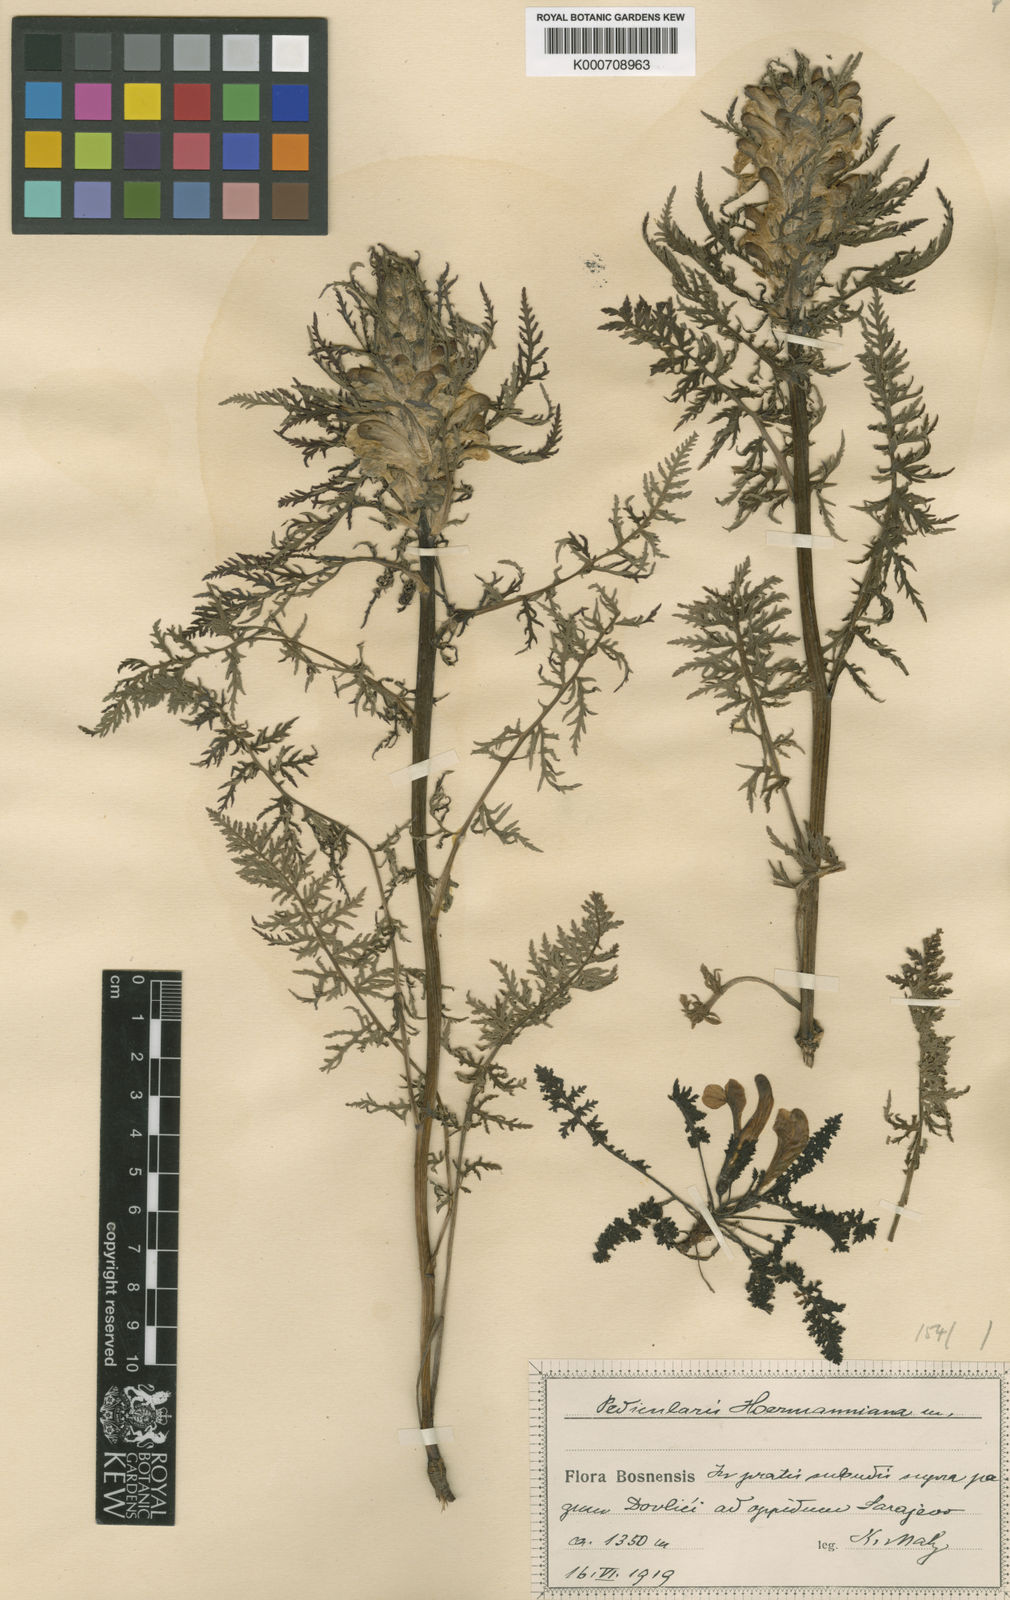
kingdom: Plantae
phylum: Tracheophyta
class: Magnoliopsida
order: Lamiales
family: Orobanchaceae
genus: Pedicularis
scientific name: Pedicularis
